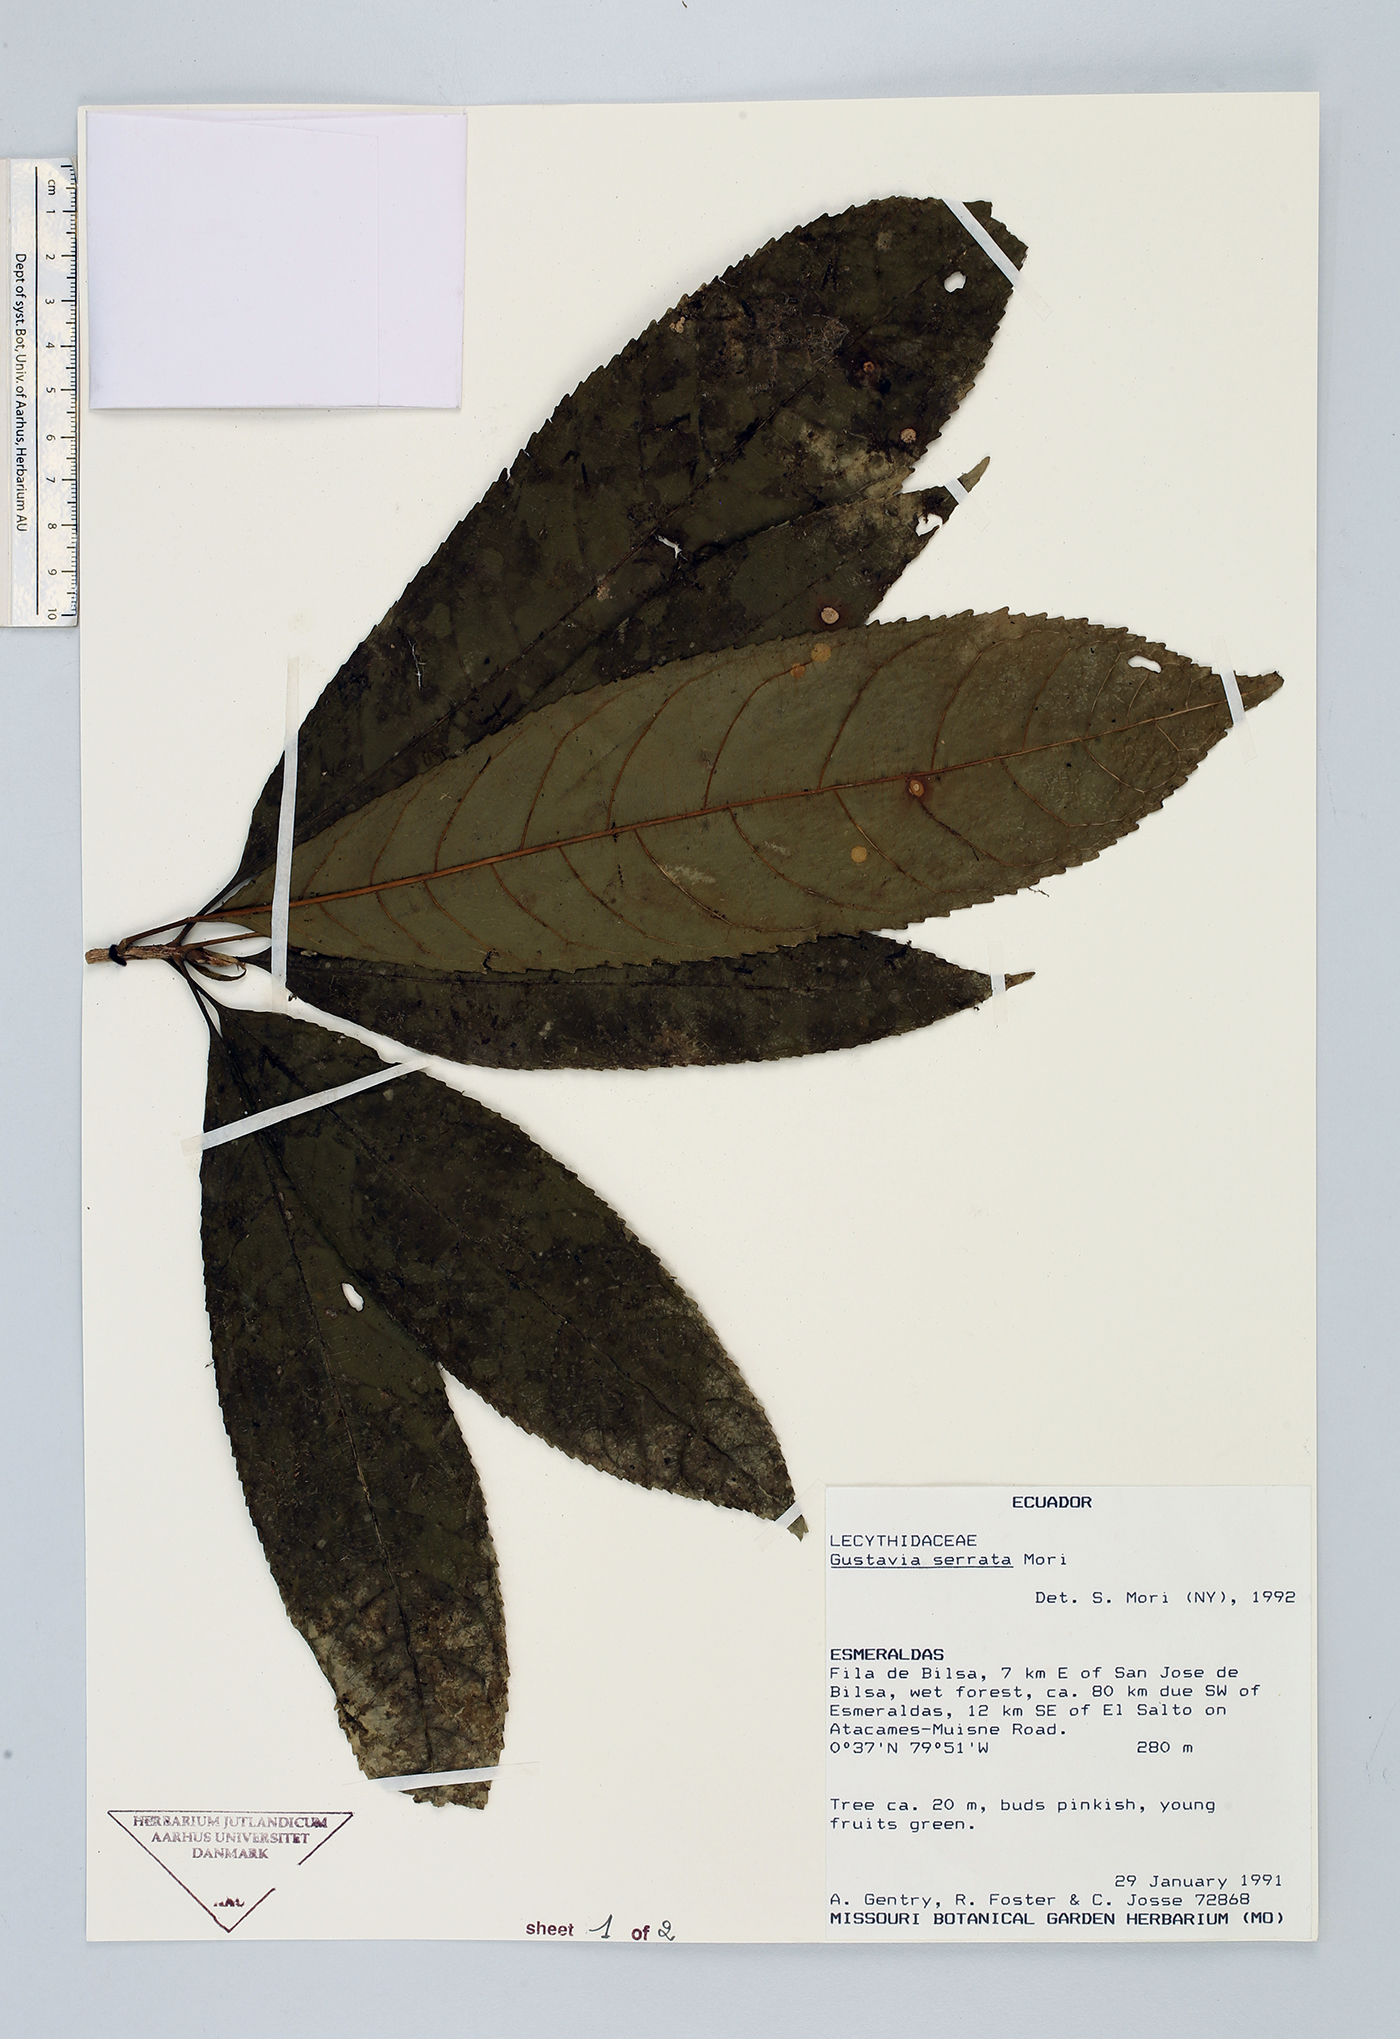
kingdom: Plantae
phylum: Tracheophyta
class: Magnoliopsida
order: Ericales
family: Lecythidaceae
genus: Gustavia
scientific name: Gustavia serrata
